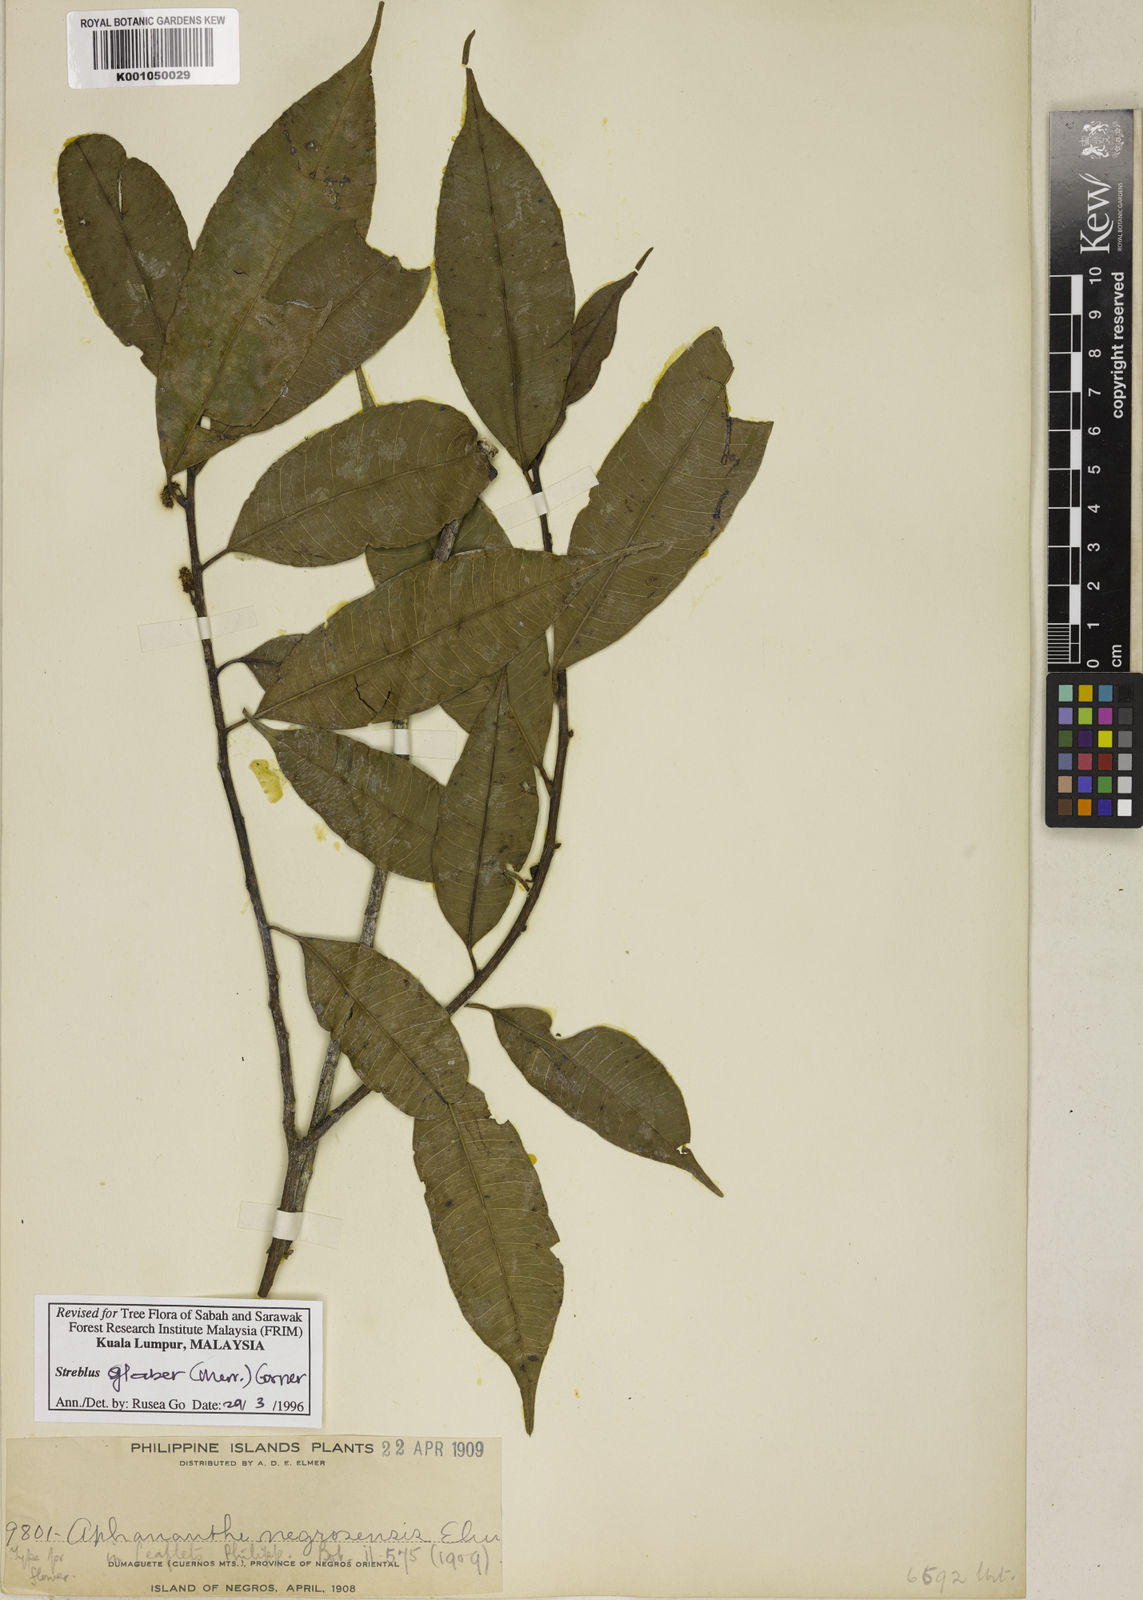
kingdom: Plantae
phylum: Tracheophyta
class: Magnoliopsida
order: Rosales
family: Moraceae
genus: Paratrophis
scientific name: Paratrophis glabra
